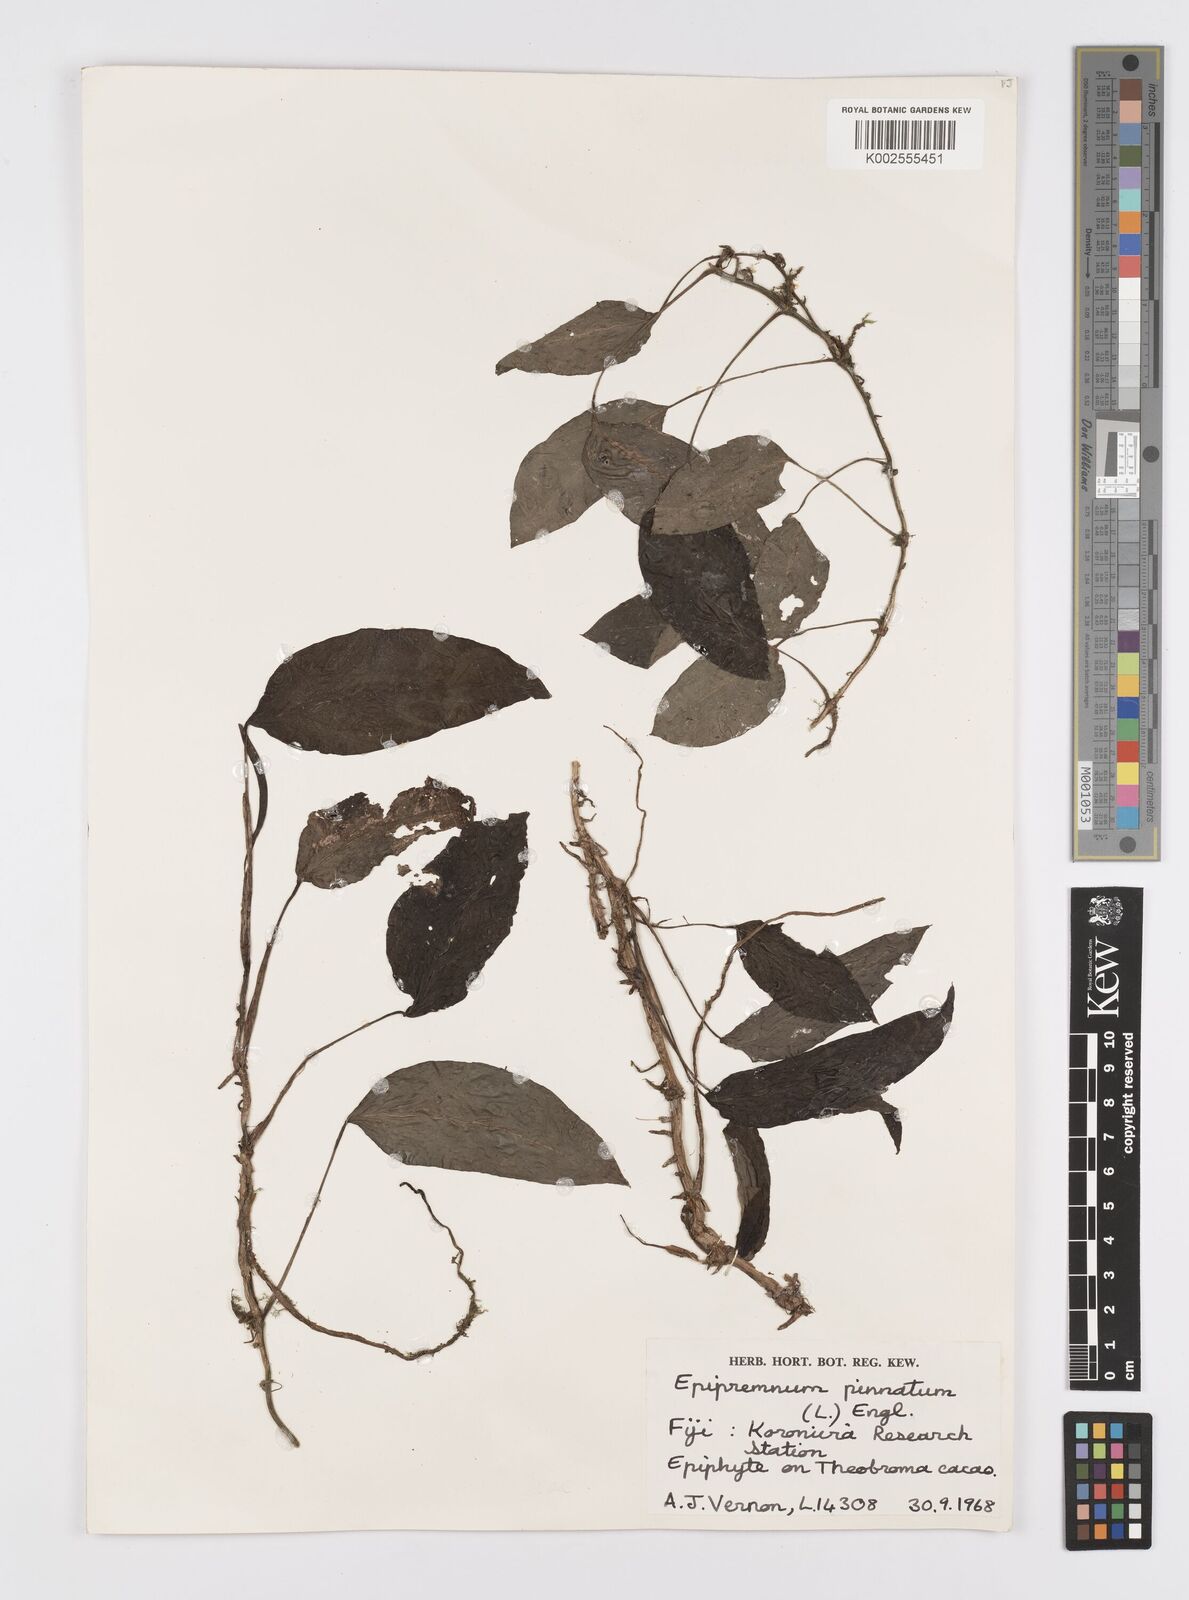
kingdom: Plantae
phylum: Tracheophyta
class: Liliopsida
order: Alismatales
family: Araceae
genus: Epipremnum
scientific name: Epipremnum pinnatum
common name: Centipede tongavine
